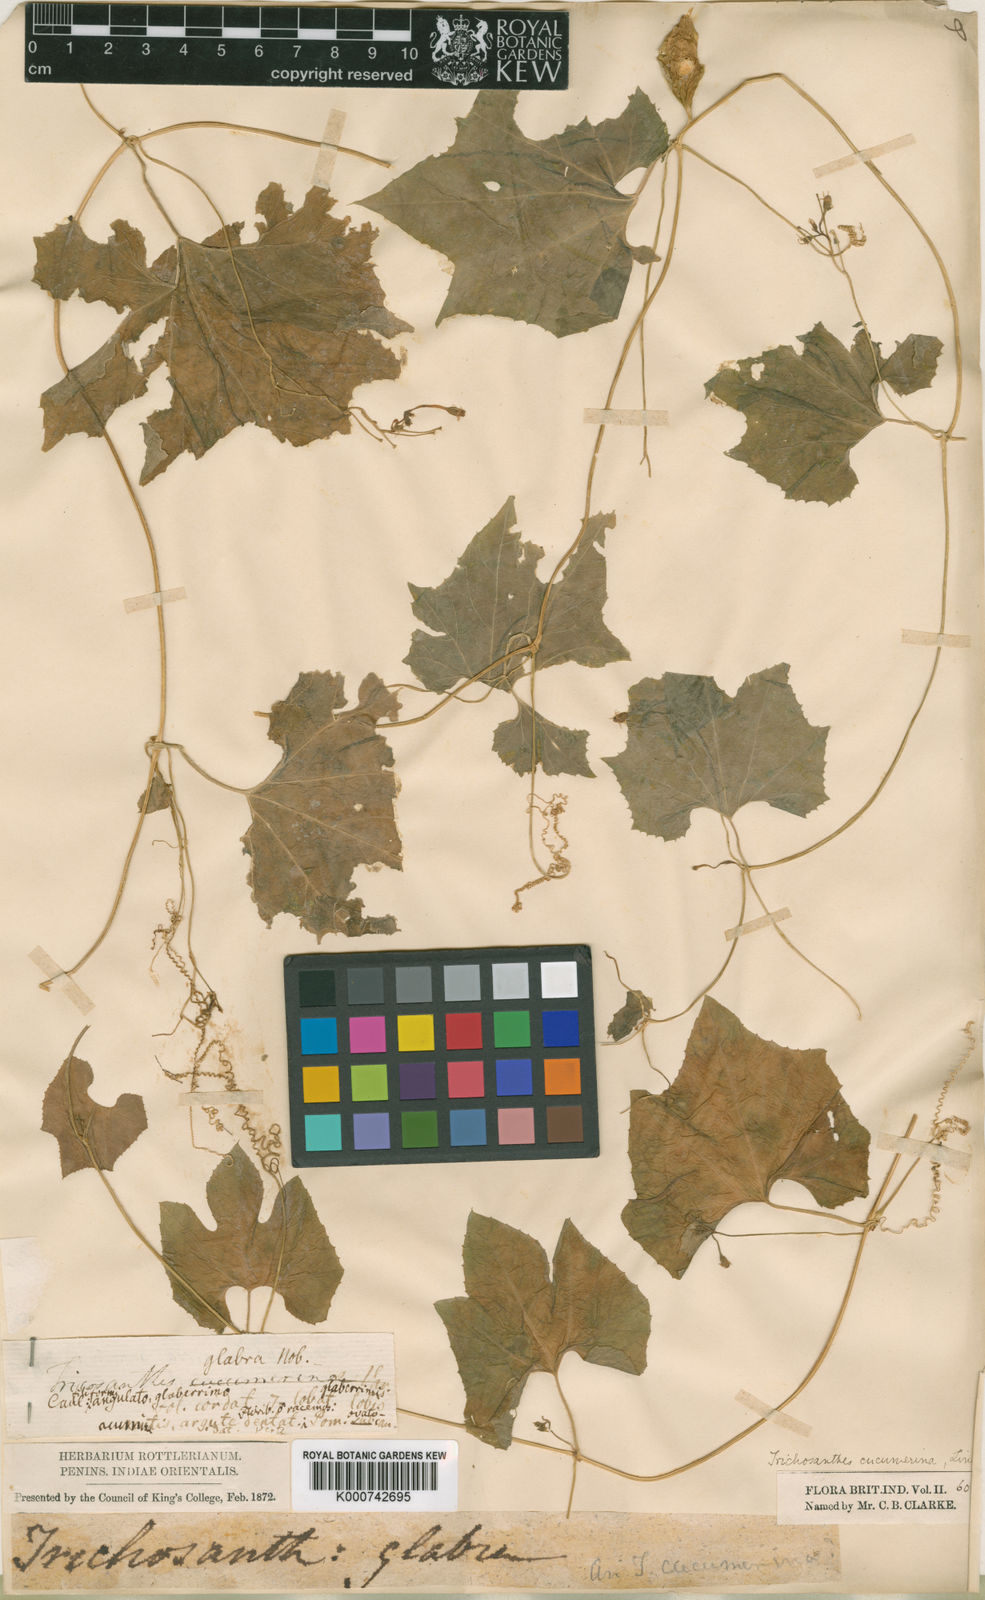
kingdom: Plantae
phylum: Tracheophyta
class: Magnoliopsida
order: Cucurbitales
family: Cucurbitaceae
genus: Trichosanthes
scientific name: Trichosanthes cucumerina
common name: Snakegourd
